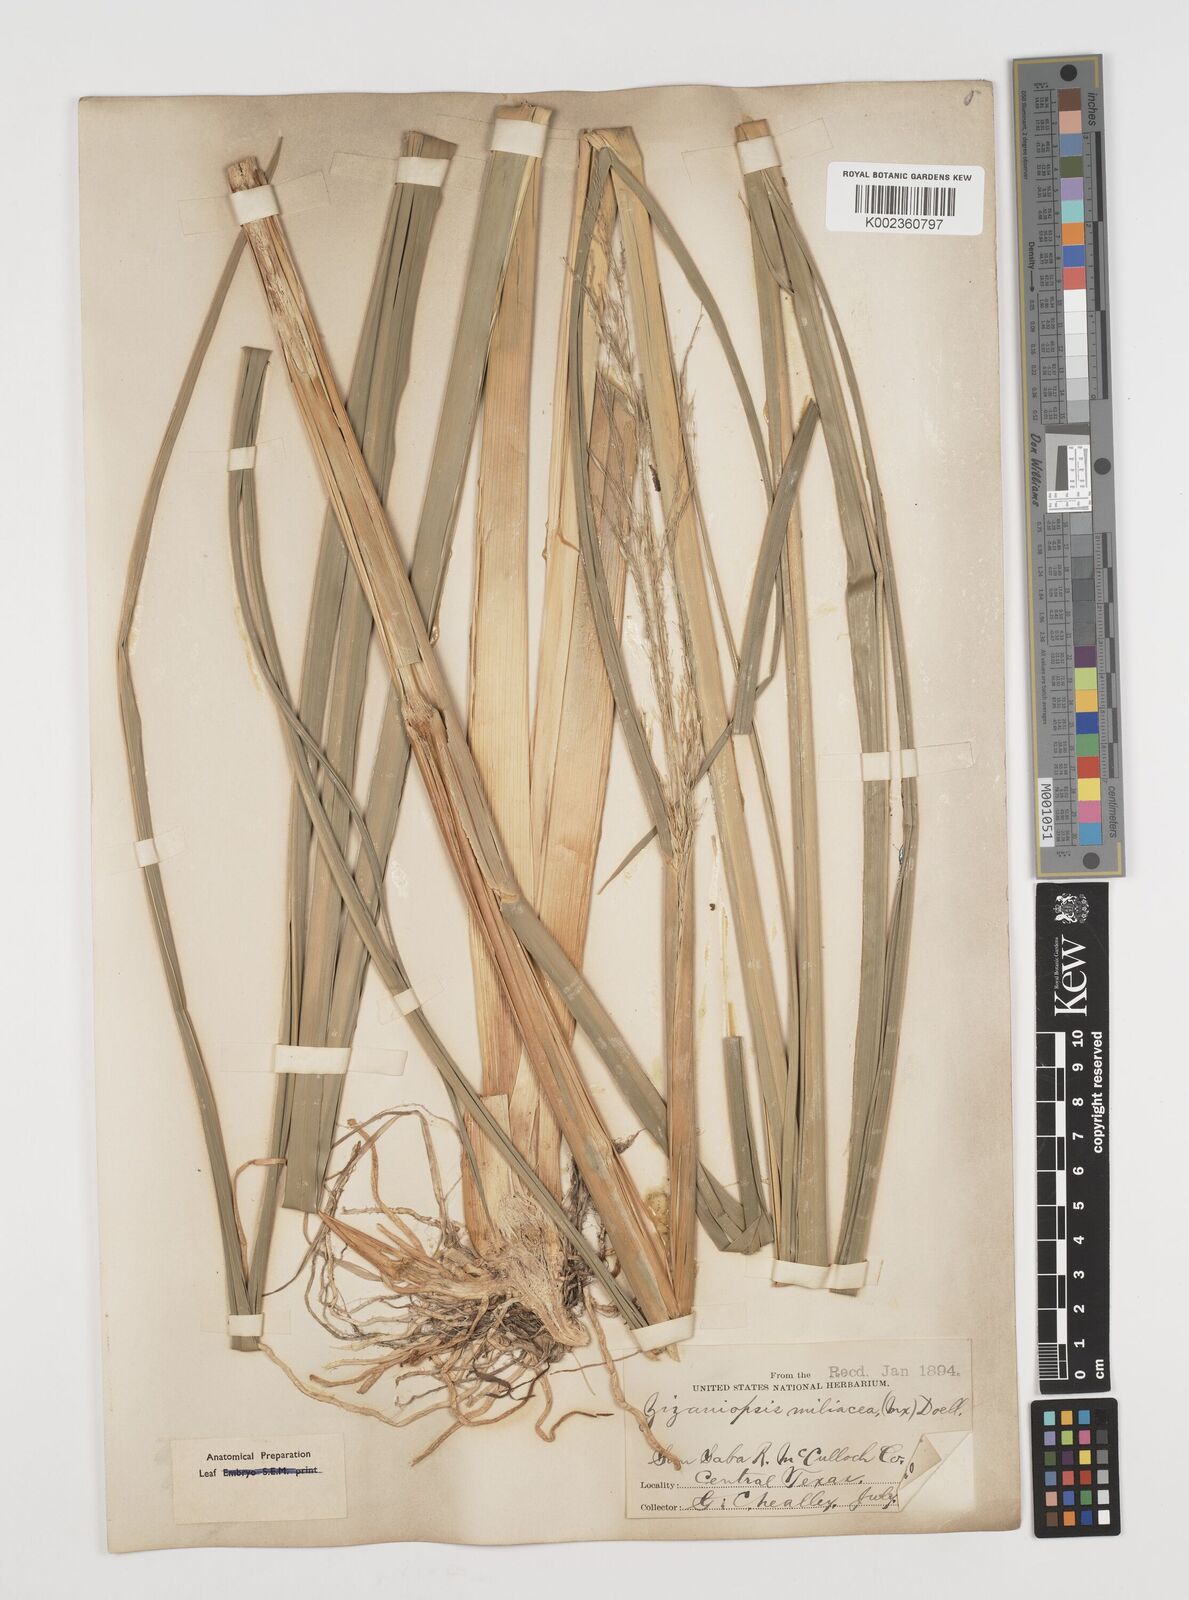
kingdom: Plantae
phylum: Tracheophyta
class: Liliopsida
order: Poales
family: Poaceae
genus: Zizaniopsis
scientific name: Zizaniopsis miliacea
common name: Giant-cutgrass
